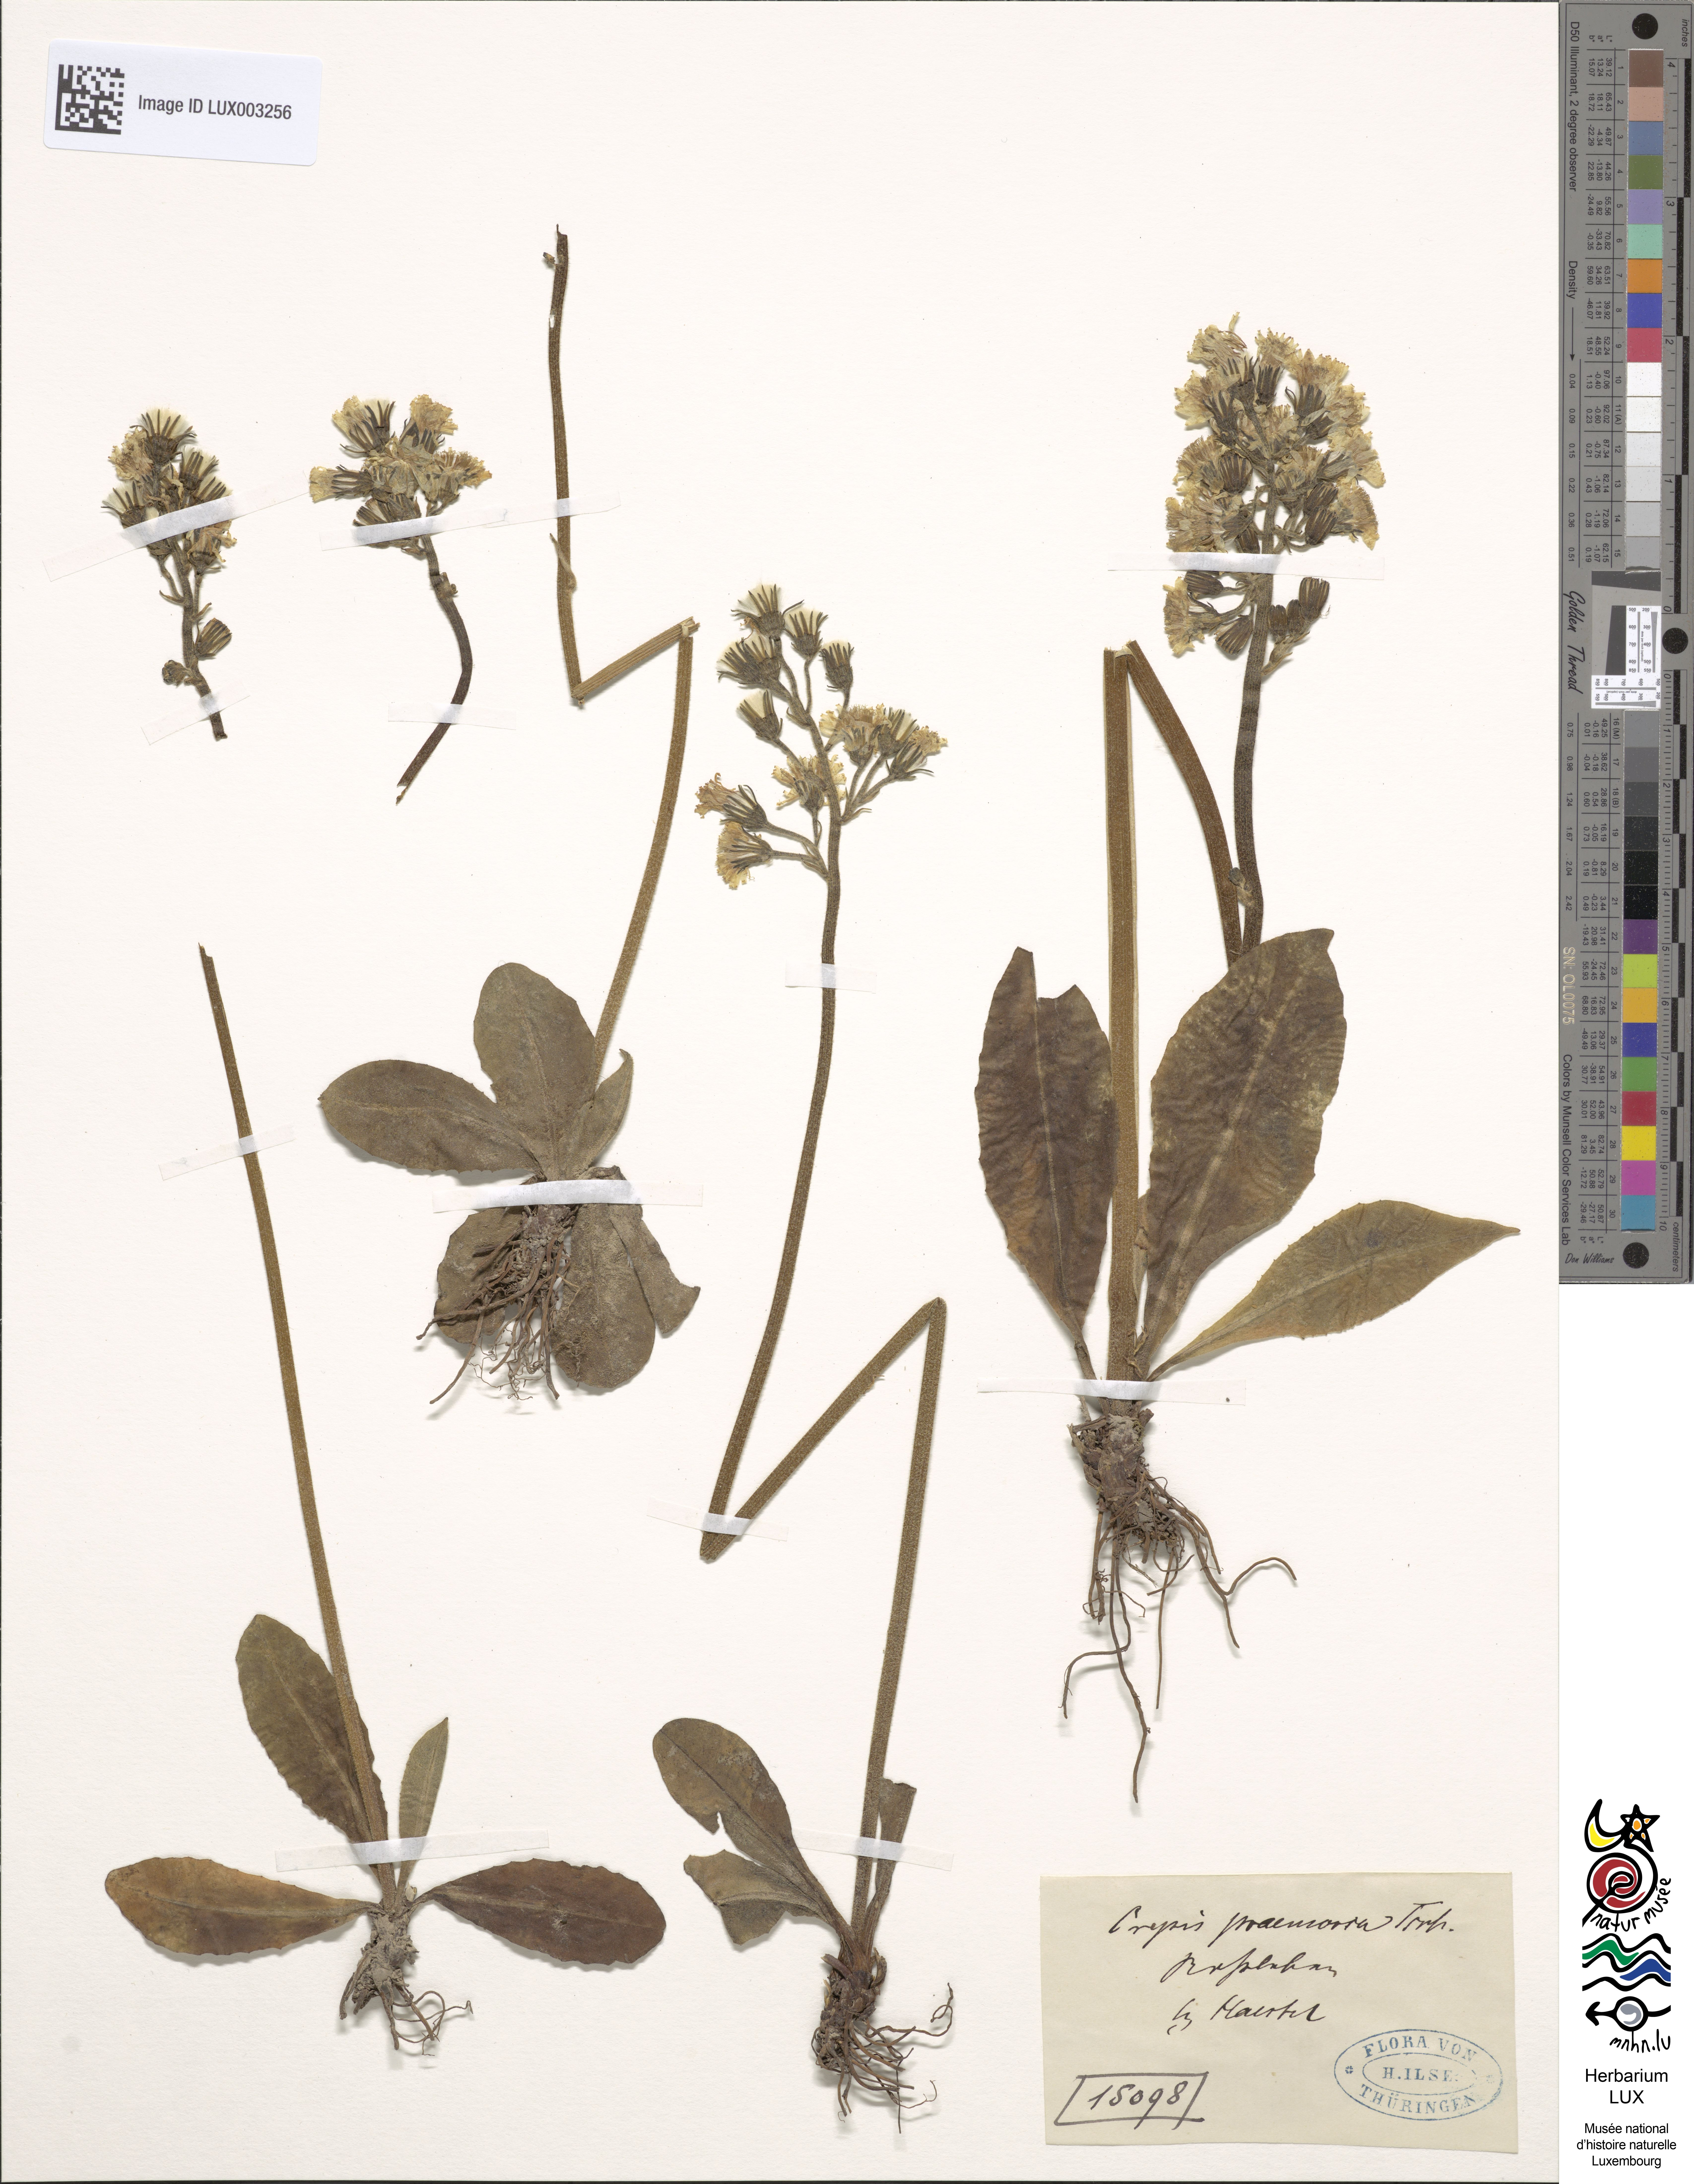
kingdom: Plantae
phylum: Tracheophyta
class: Magnoliopsida
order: Asterales
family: Asteraceae
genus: Crepis
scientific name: Crepis praemorsa
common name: Leafless hawk's-beard
